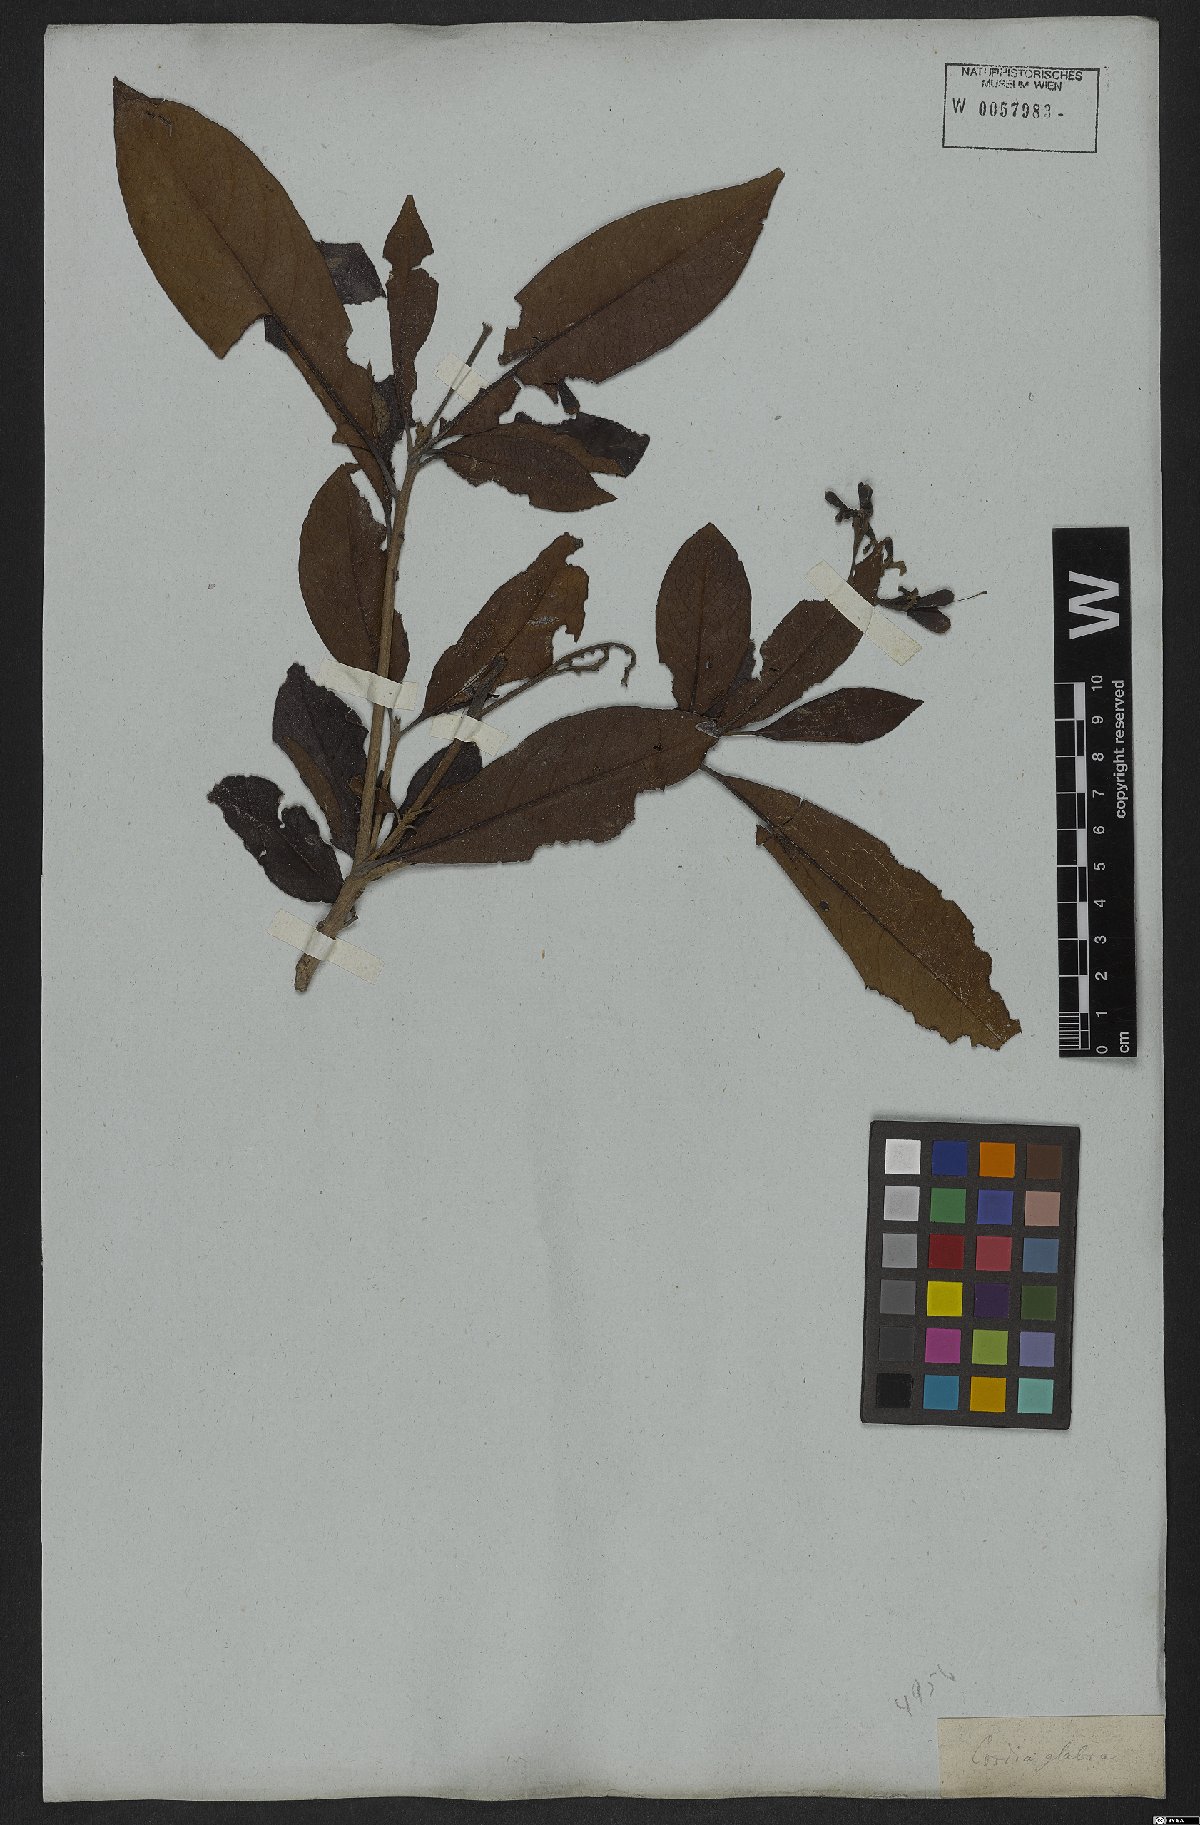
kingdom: Plantae
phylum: Tracheophyta
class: Magnoliopsida
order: Boraginales
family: Cordiaceae
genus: Cordia
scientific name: Cordia glabra
